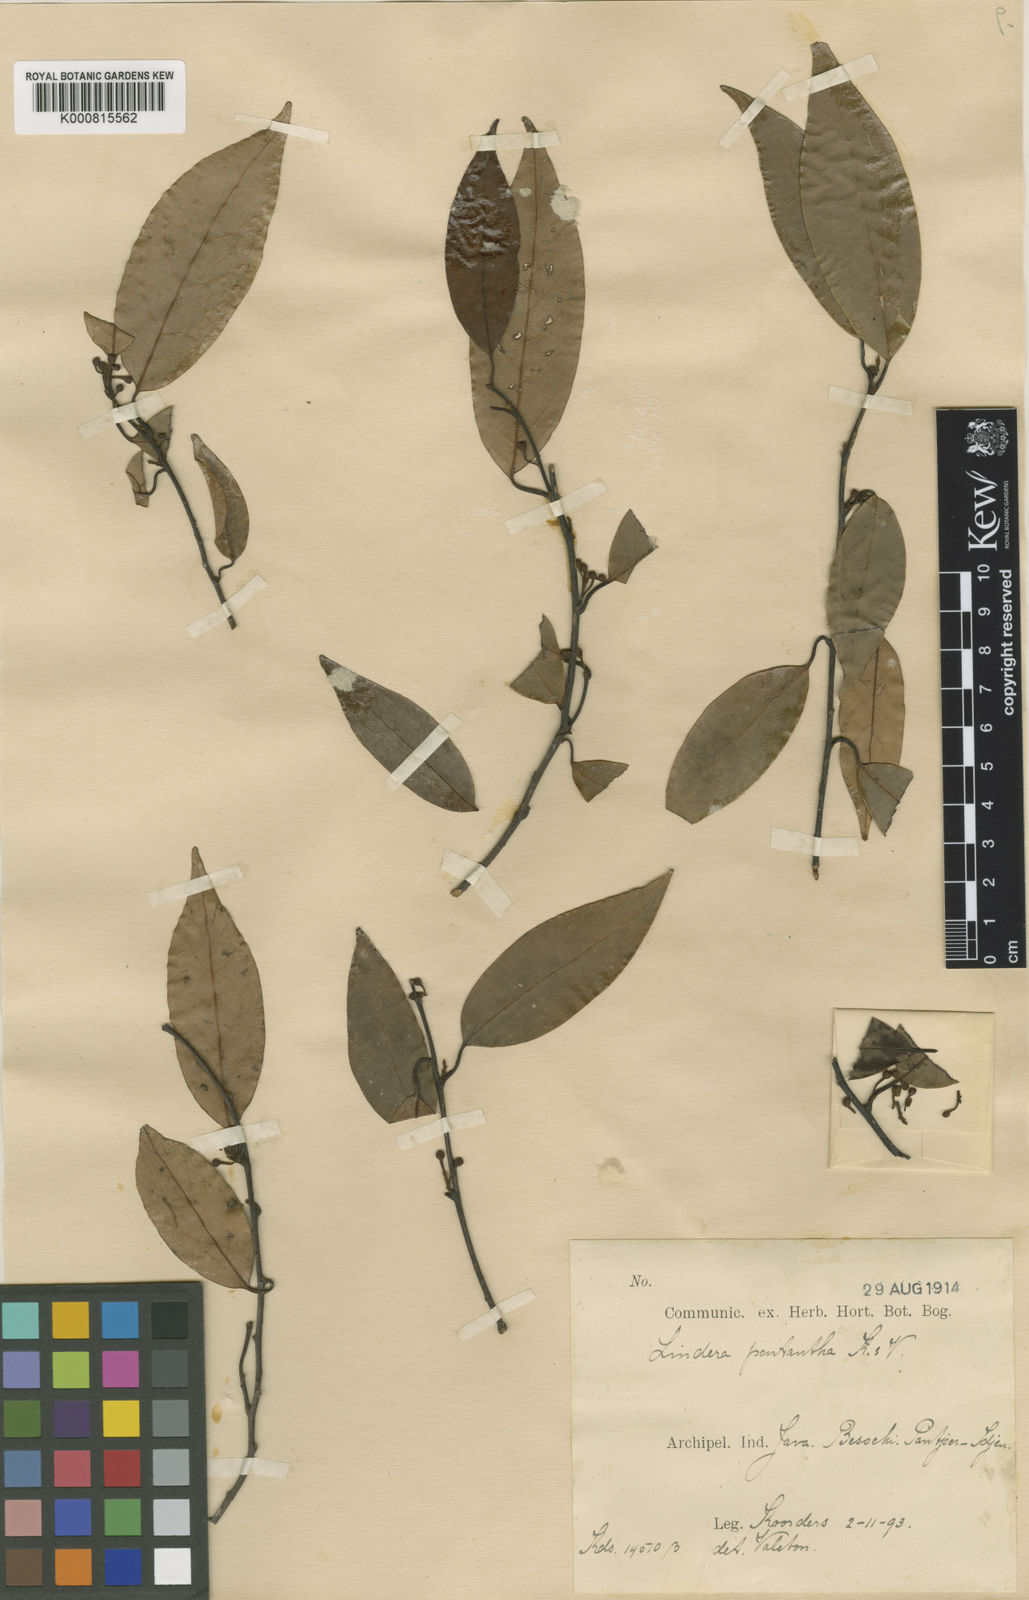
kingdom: Plantae
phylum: Tracheophyta
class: Magnoliopsida
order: Laurales
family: Lauraceae
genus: Lindera
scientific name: Lindera pentantha
